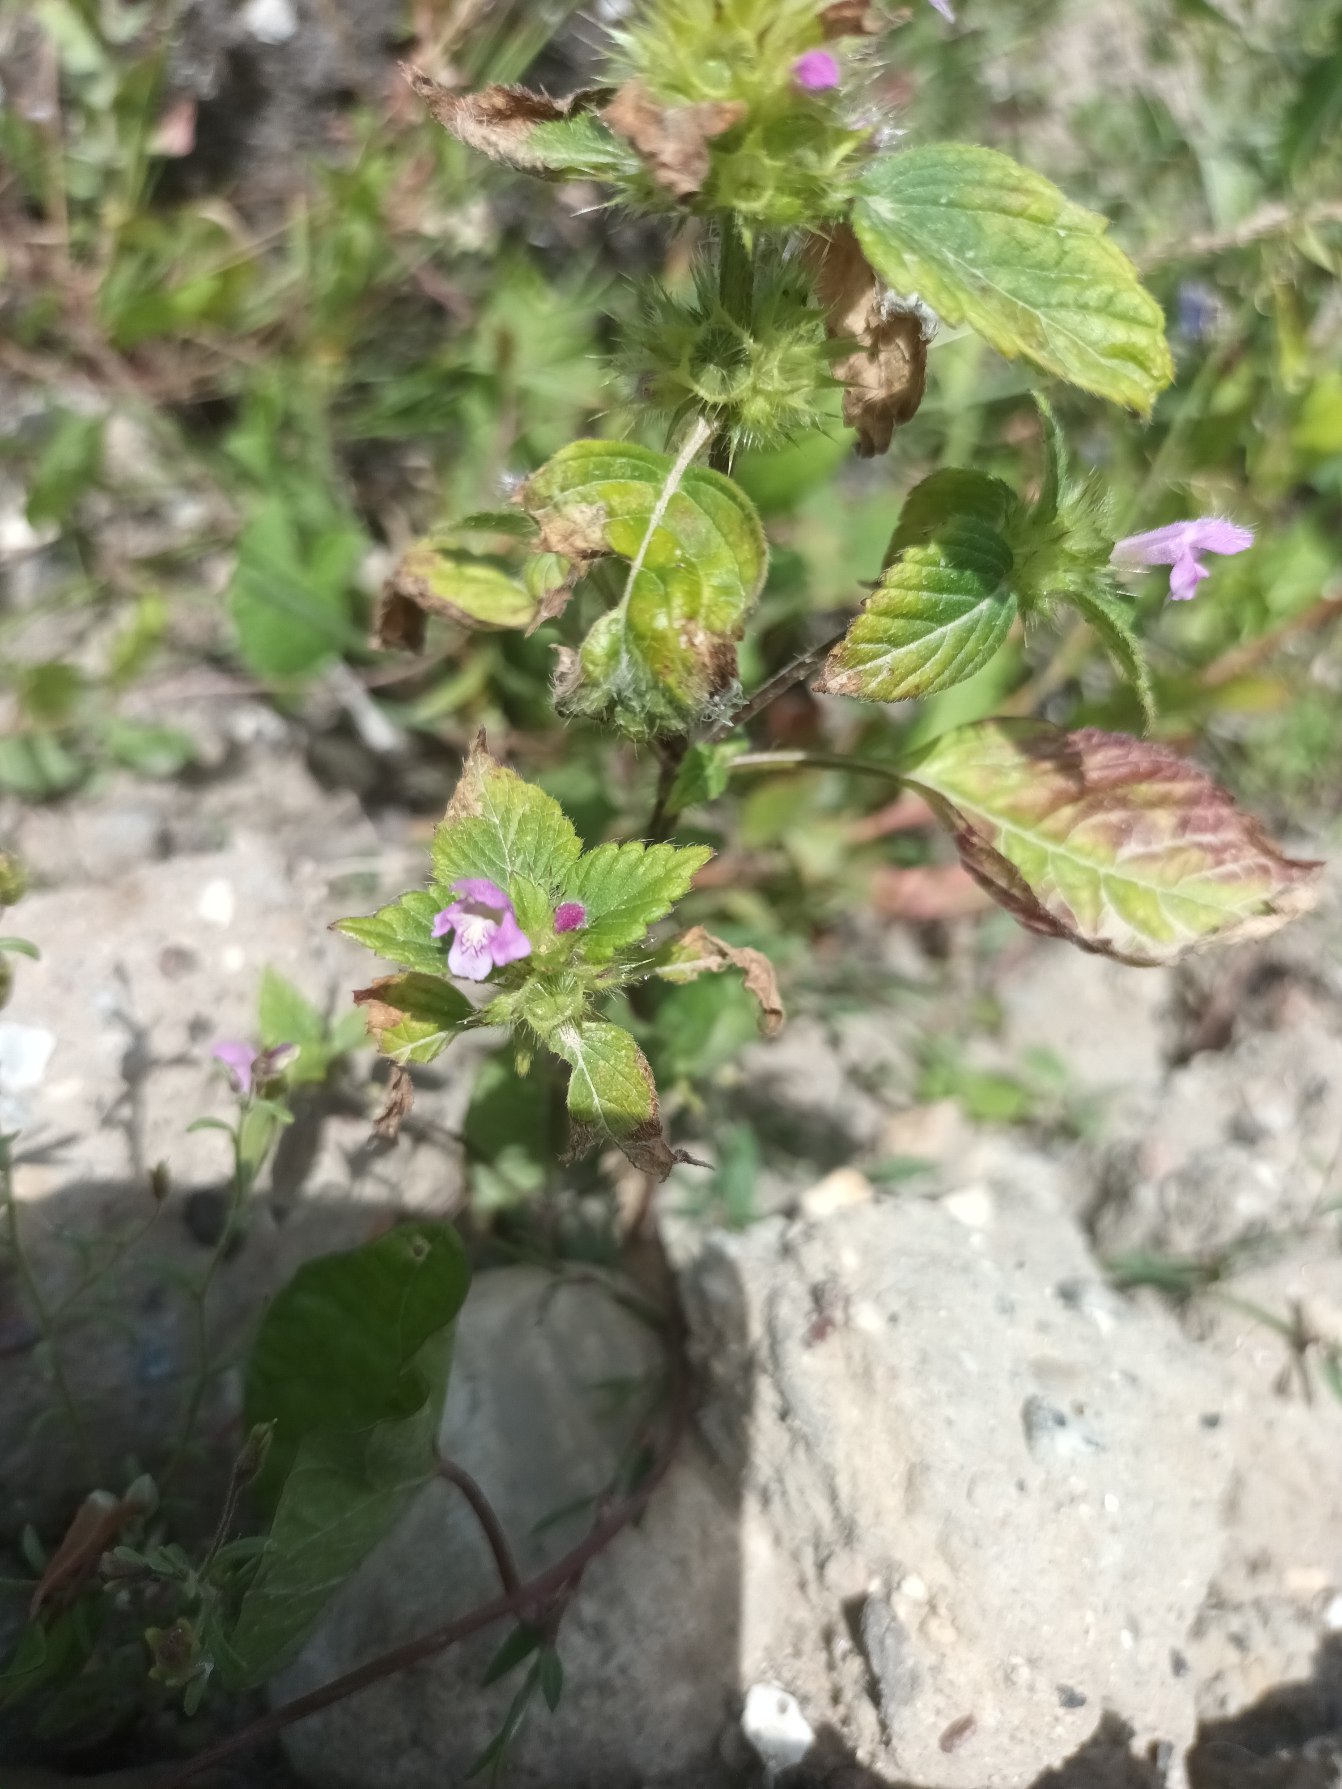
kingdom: Plantae
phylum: Tracheophyta
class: Magnoliopsida
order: Lamiales
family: Lamiaceae
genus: Galeopsis
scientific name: Galeopsis tetrahit
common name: Almindelig hanekro
